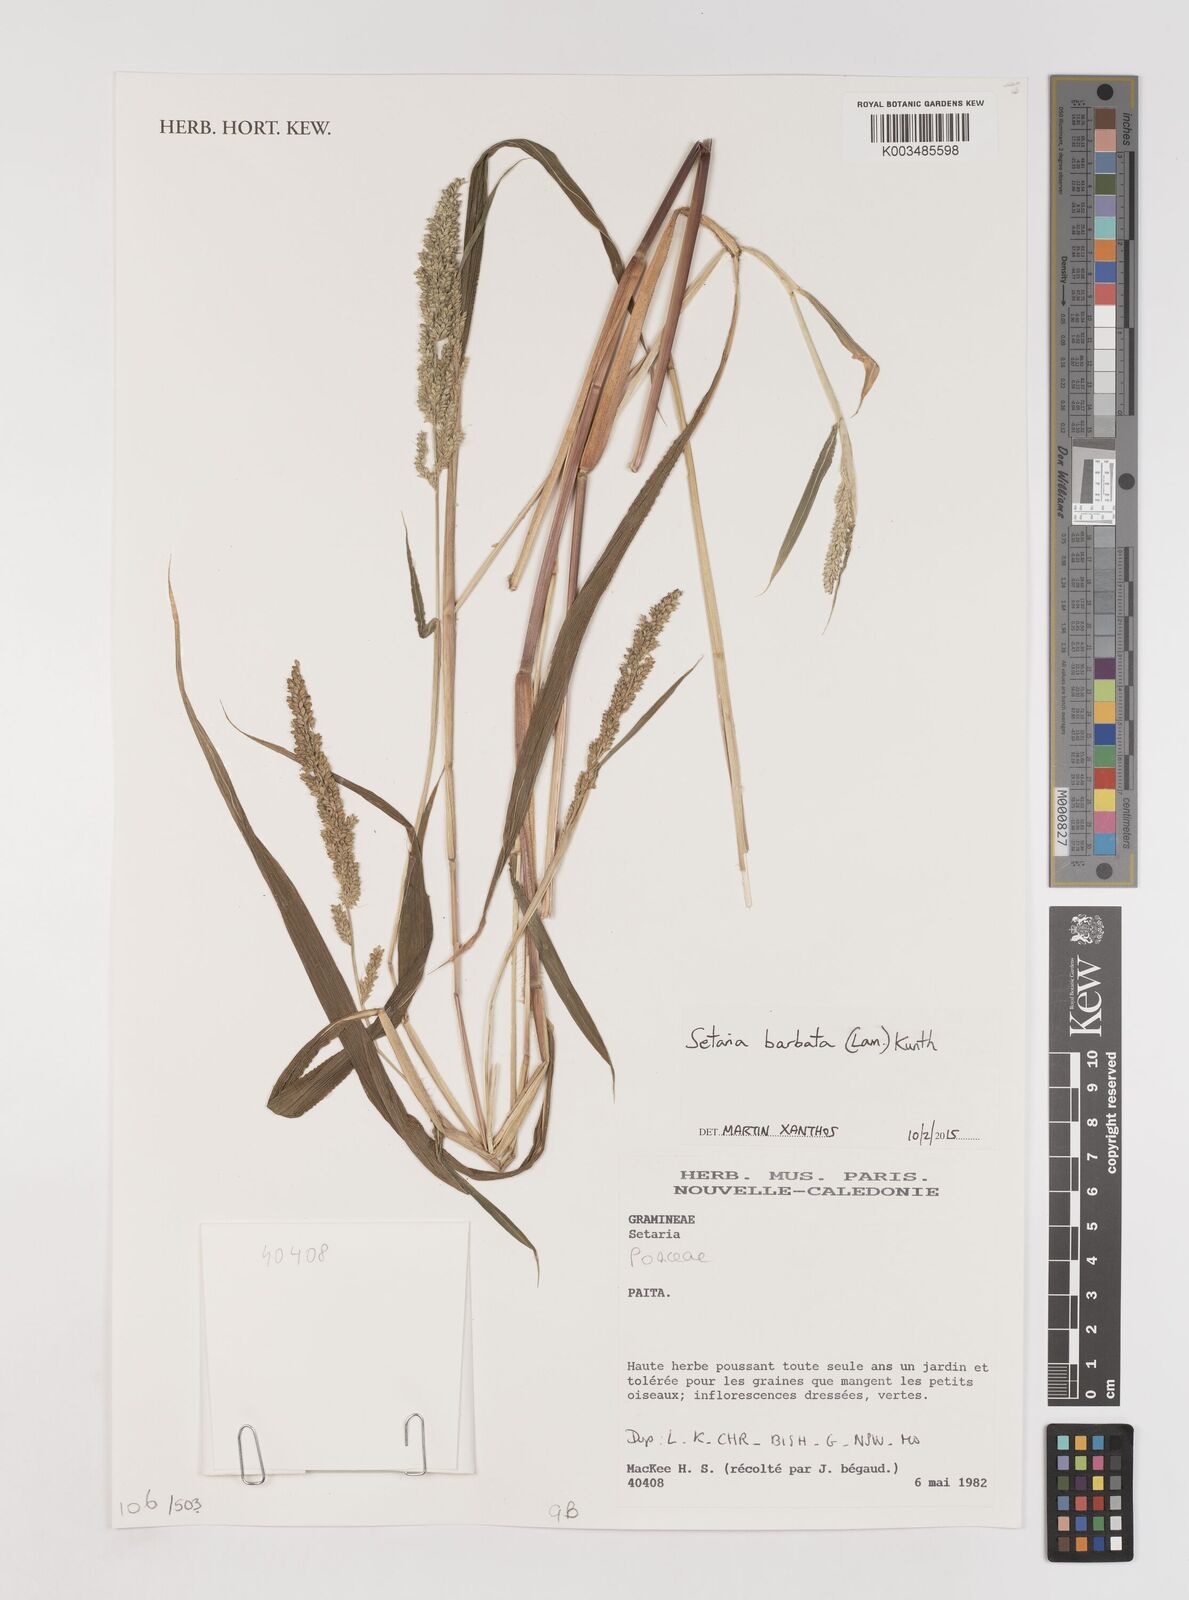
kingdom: Plantae
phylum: Tracheophyta
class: Liliopsida
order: Poales
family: Poaceae
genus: Setaria
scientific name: Setaria barbata
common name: East indian bristlegrass
